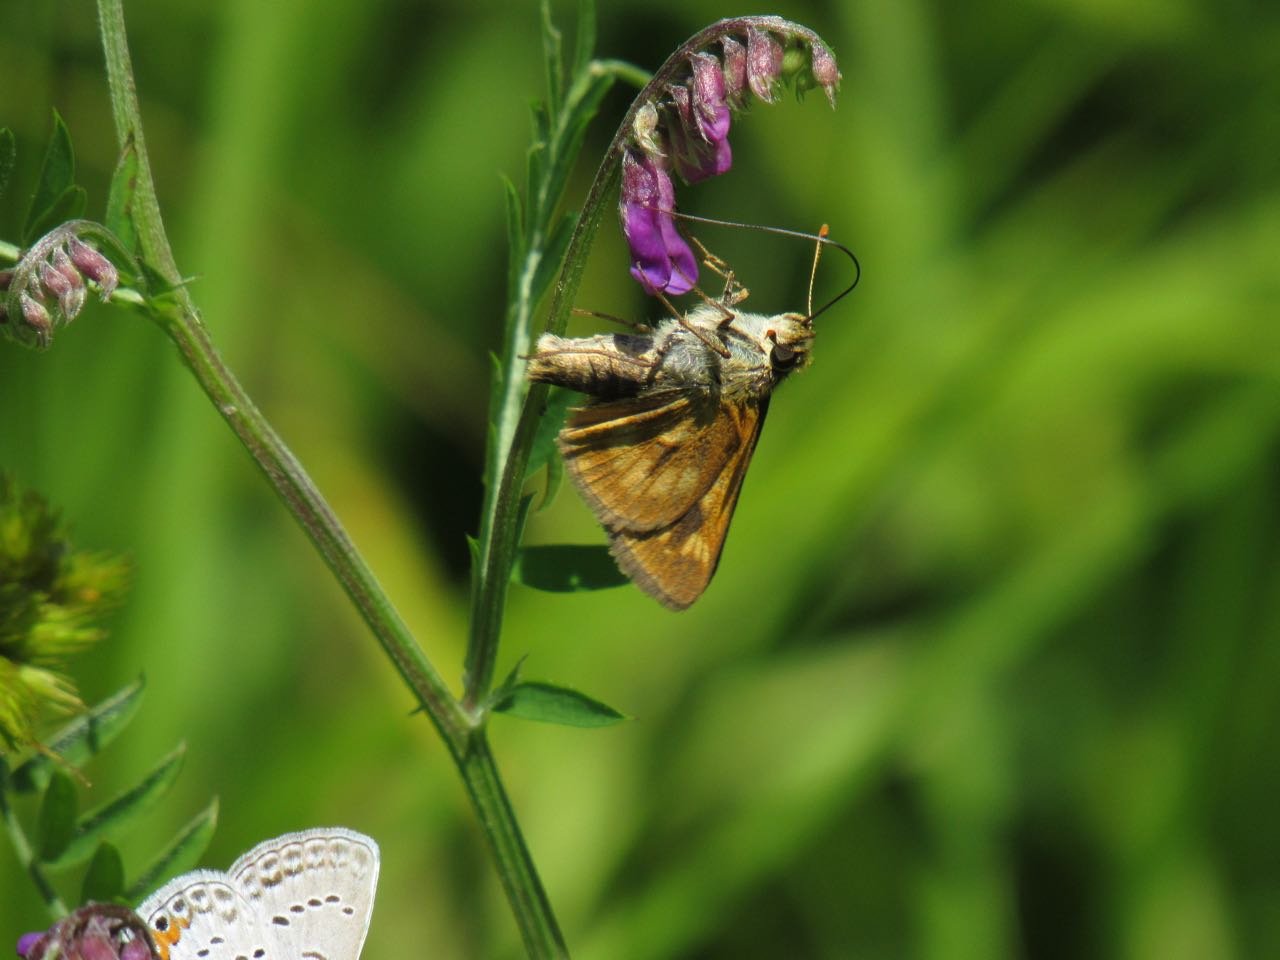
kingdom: Animalia
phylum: Arthropoda
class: Insecta
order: Lepidoptera
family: Hesperiidae
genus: Polites
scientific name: Polites
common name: Long Dash Skipper
